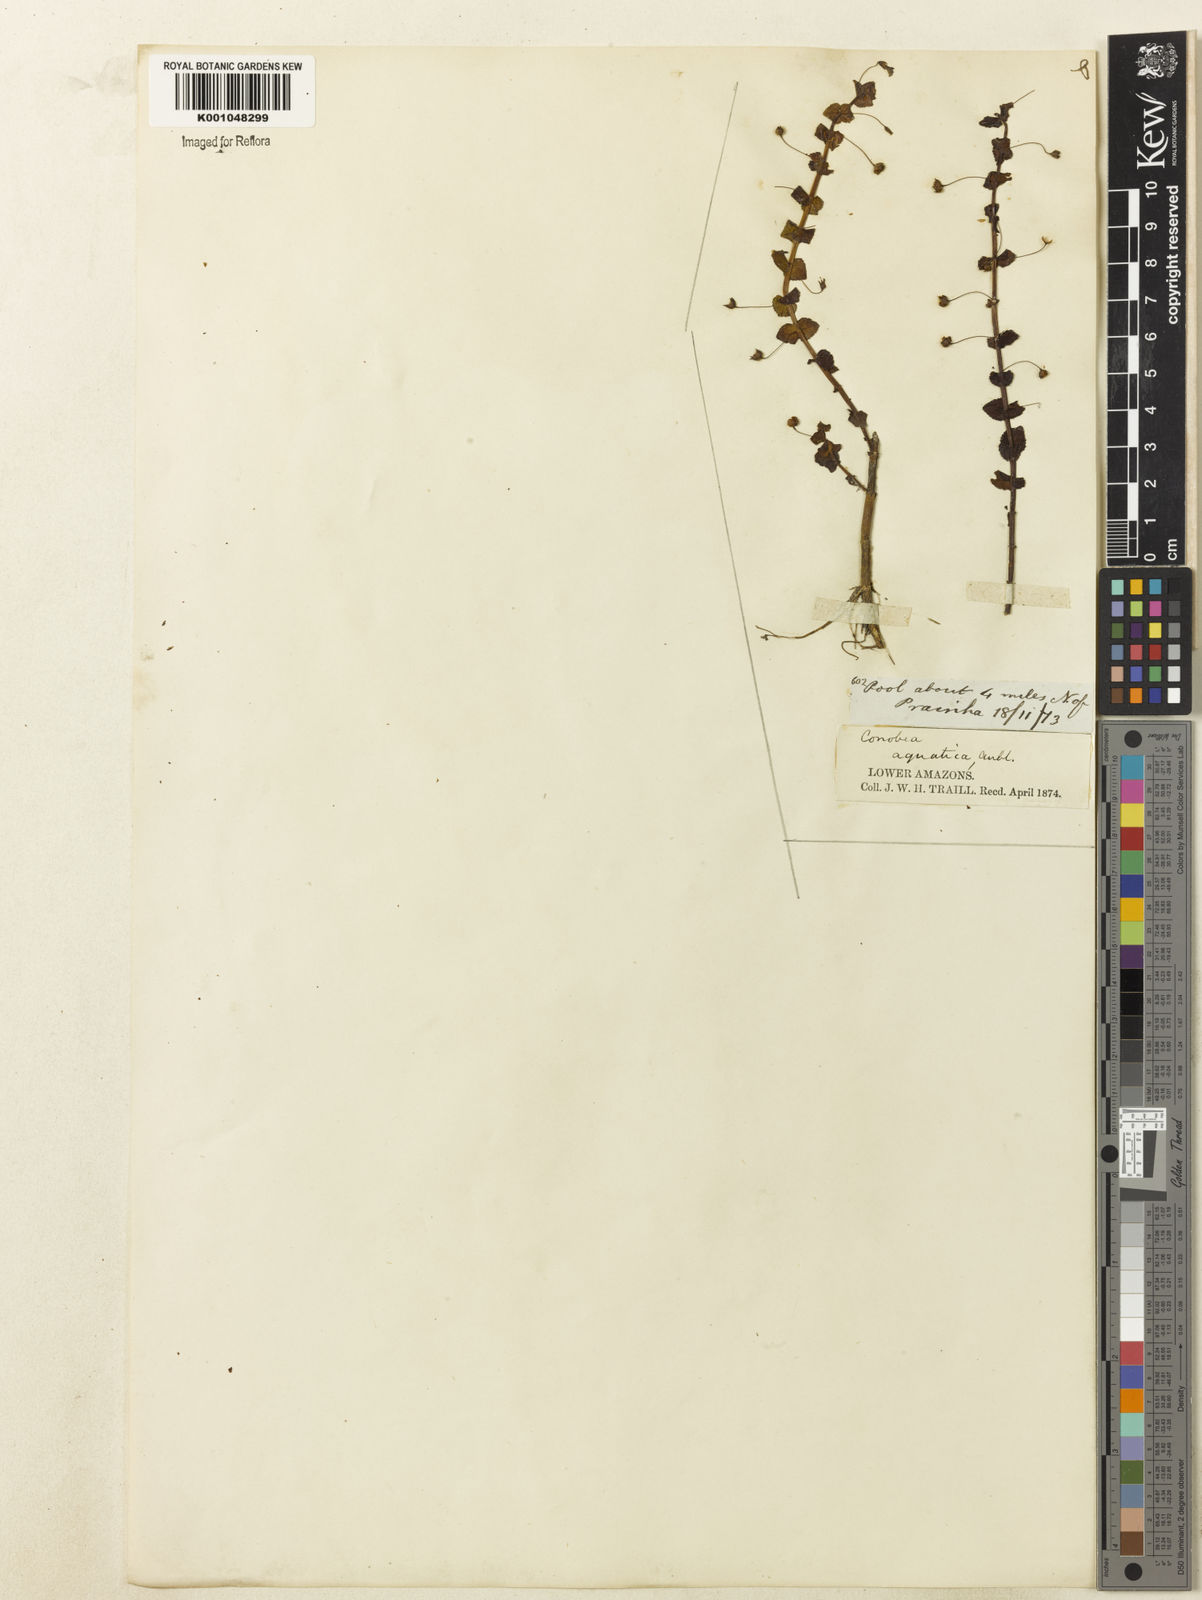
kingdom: Plantae
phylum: Tracheophyta
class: Magnoliopsida
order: Lamiales
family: Plantaginaceae
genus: Conobea
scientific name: Conobea aquatica
